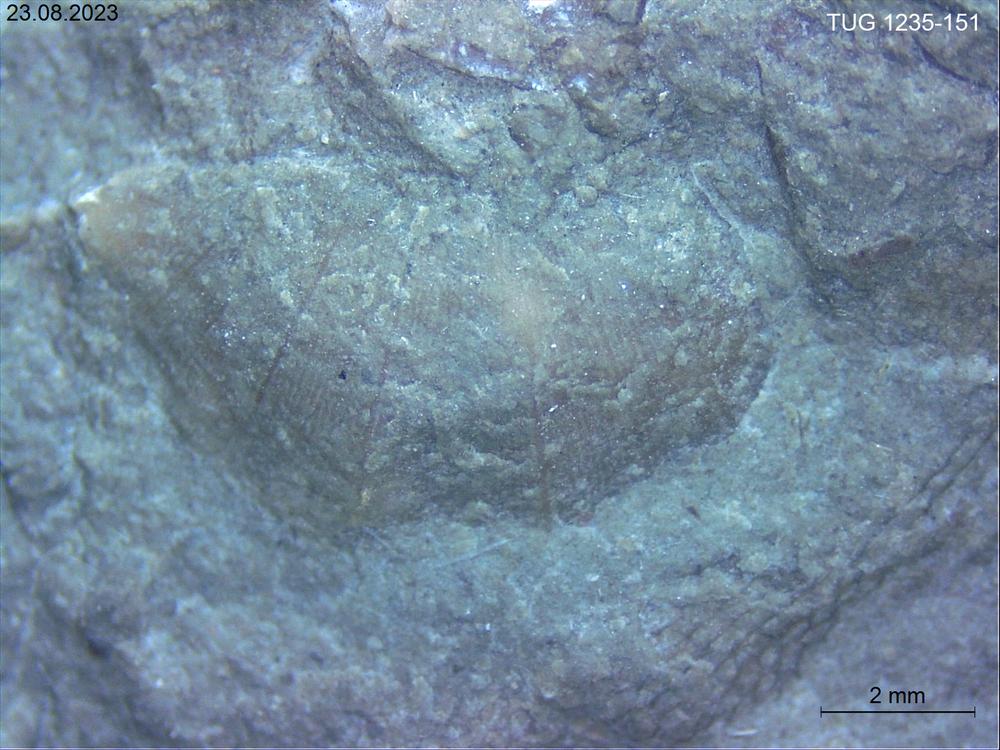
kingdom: Animalia
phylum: Brachiopoda
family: Sowerbyellidae
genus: Sowerbyella
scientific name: Sowerbyella
